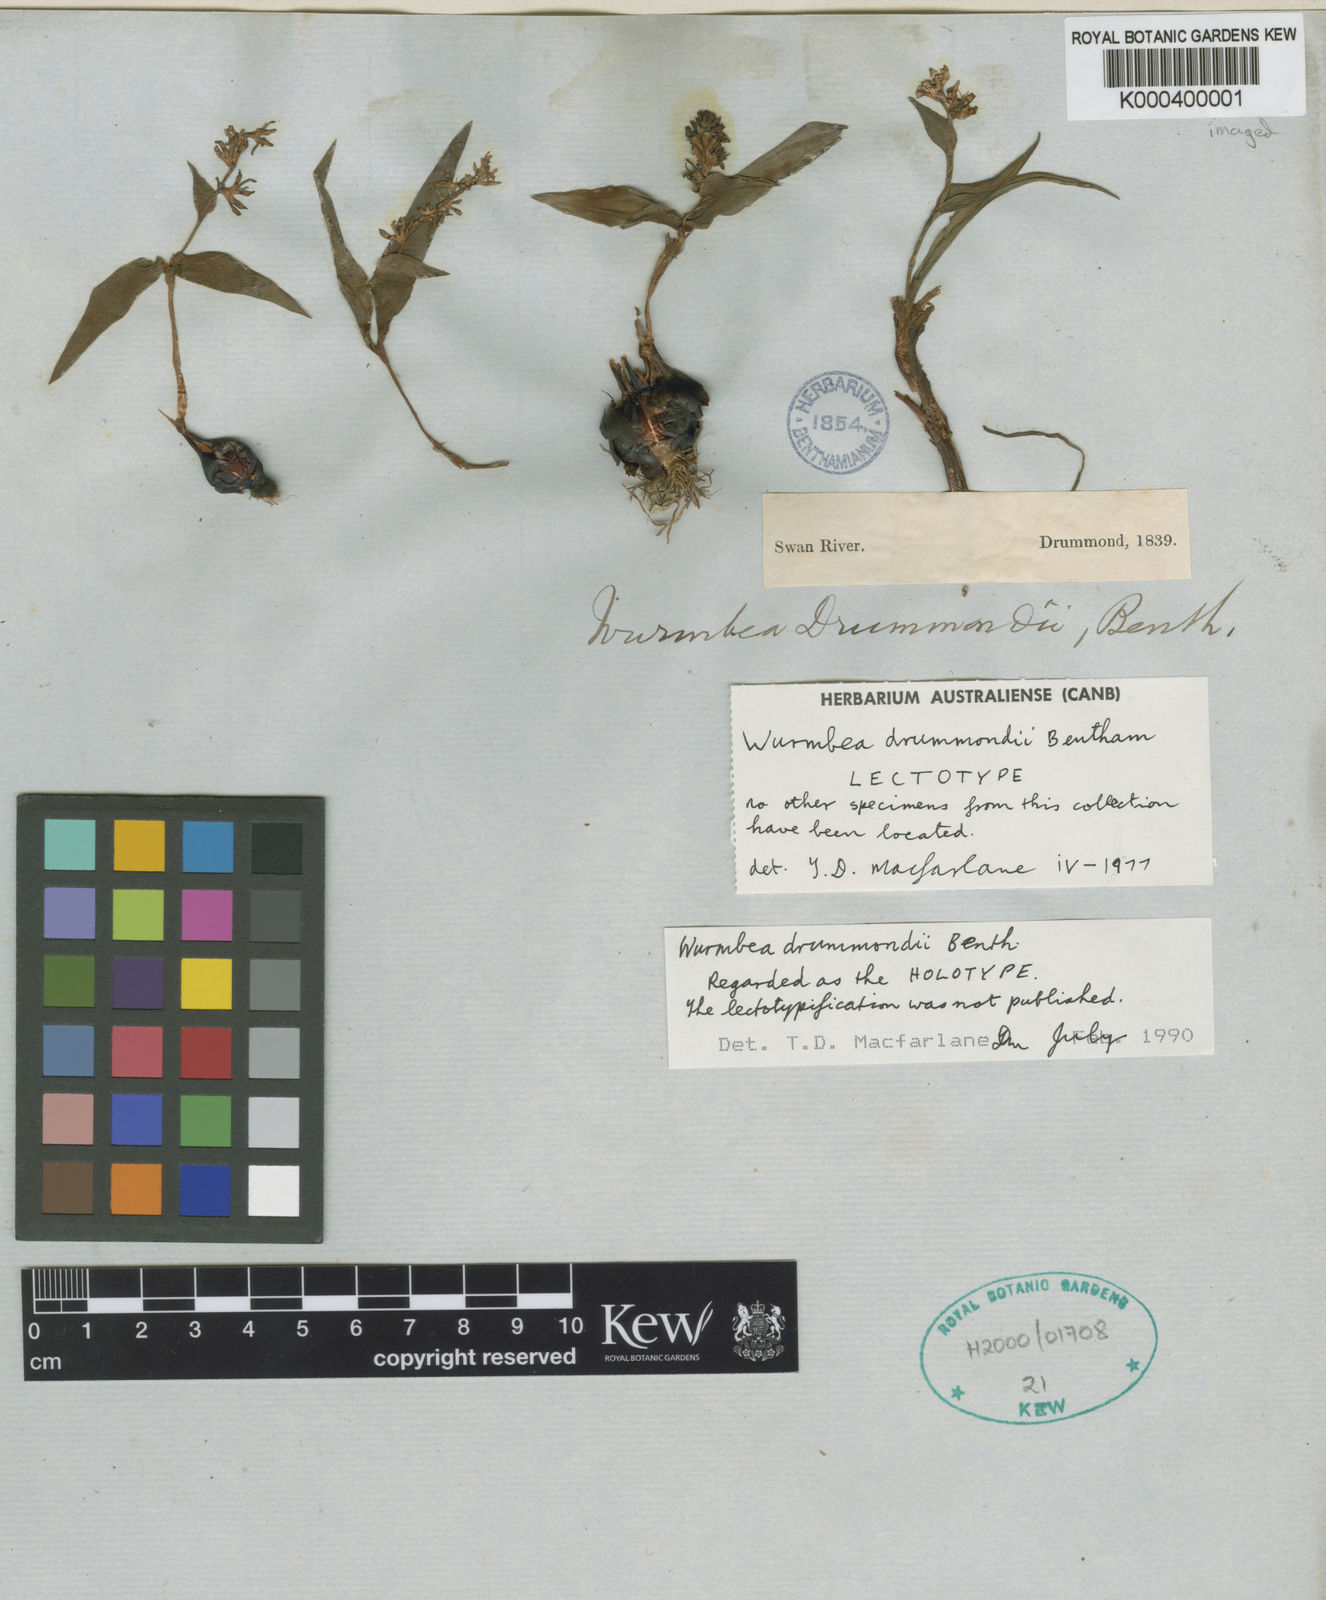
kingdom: Plantae
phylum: Tracheophyta
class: Liliopsida
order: Liliales
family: Colchicaceae
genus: Wurmbea
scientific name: Wurmbea drummondii
